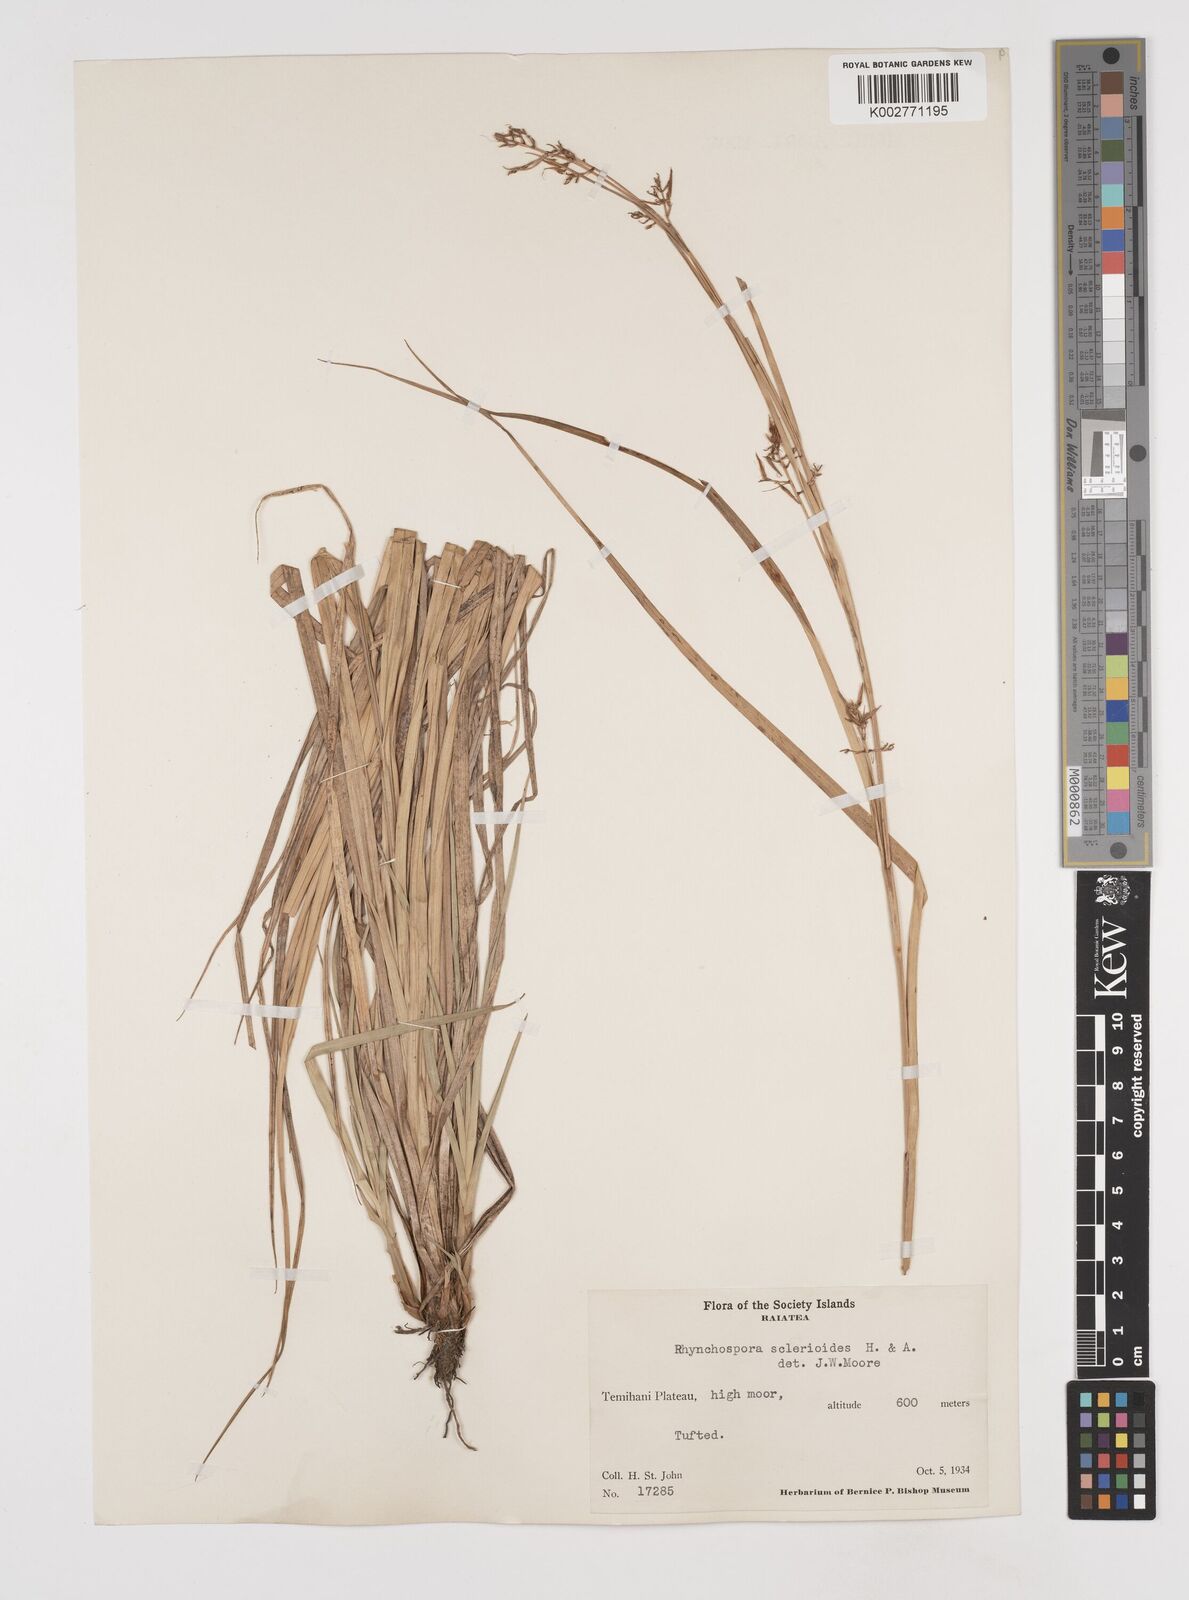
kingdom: Plantae
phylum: Tracheophyta
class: Liliopsida
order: Poales
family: Cyperaceae
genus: Rhynchospora
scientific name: Rhynchospora sclerioides
